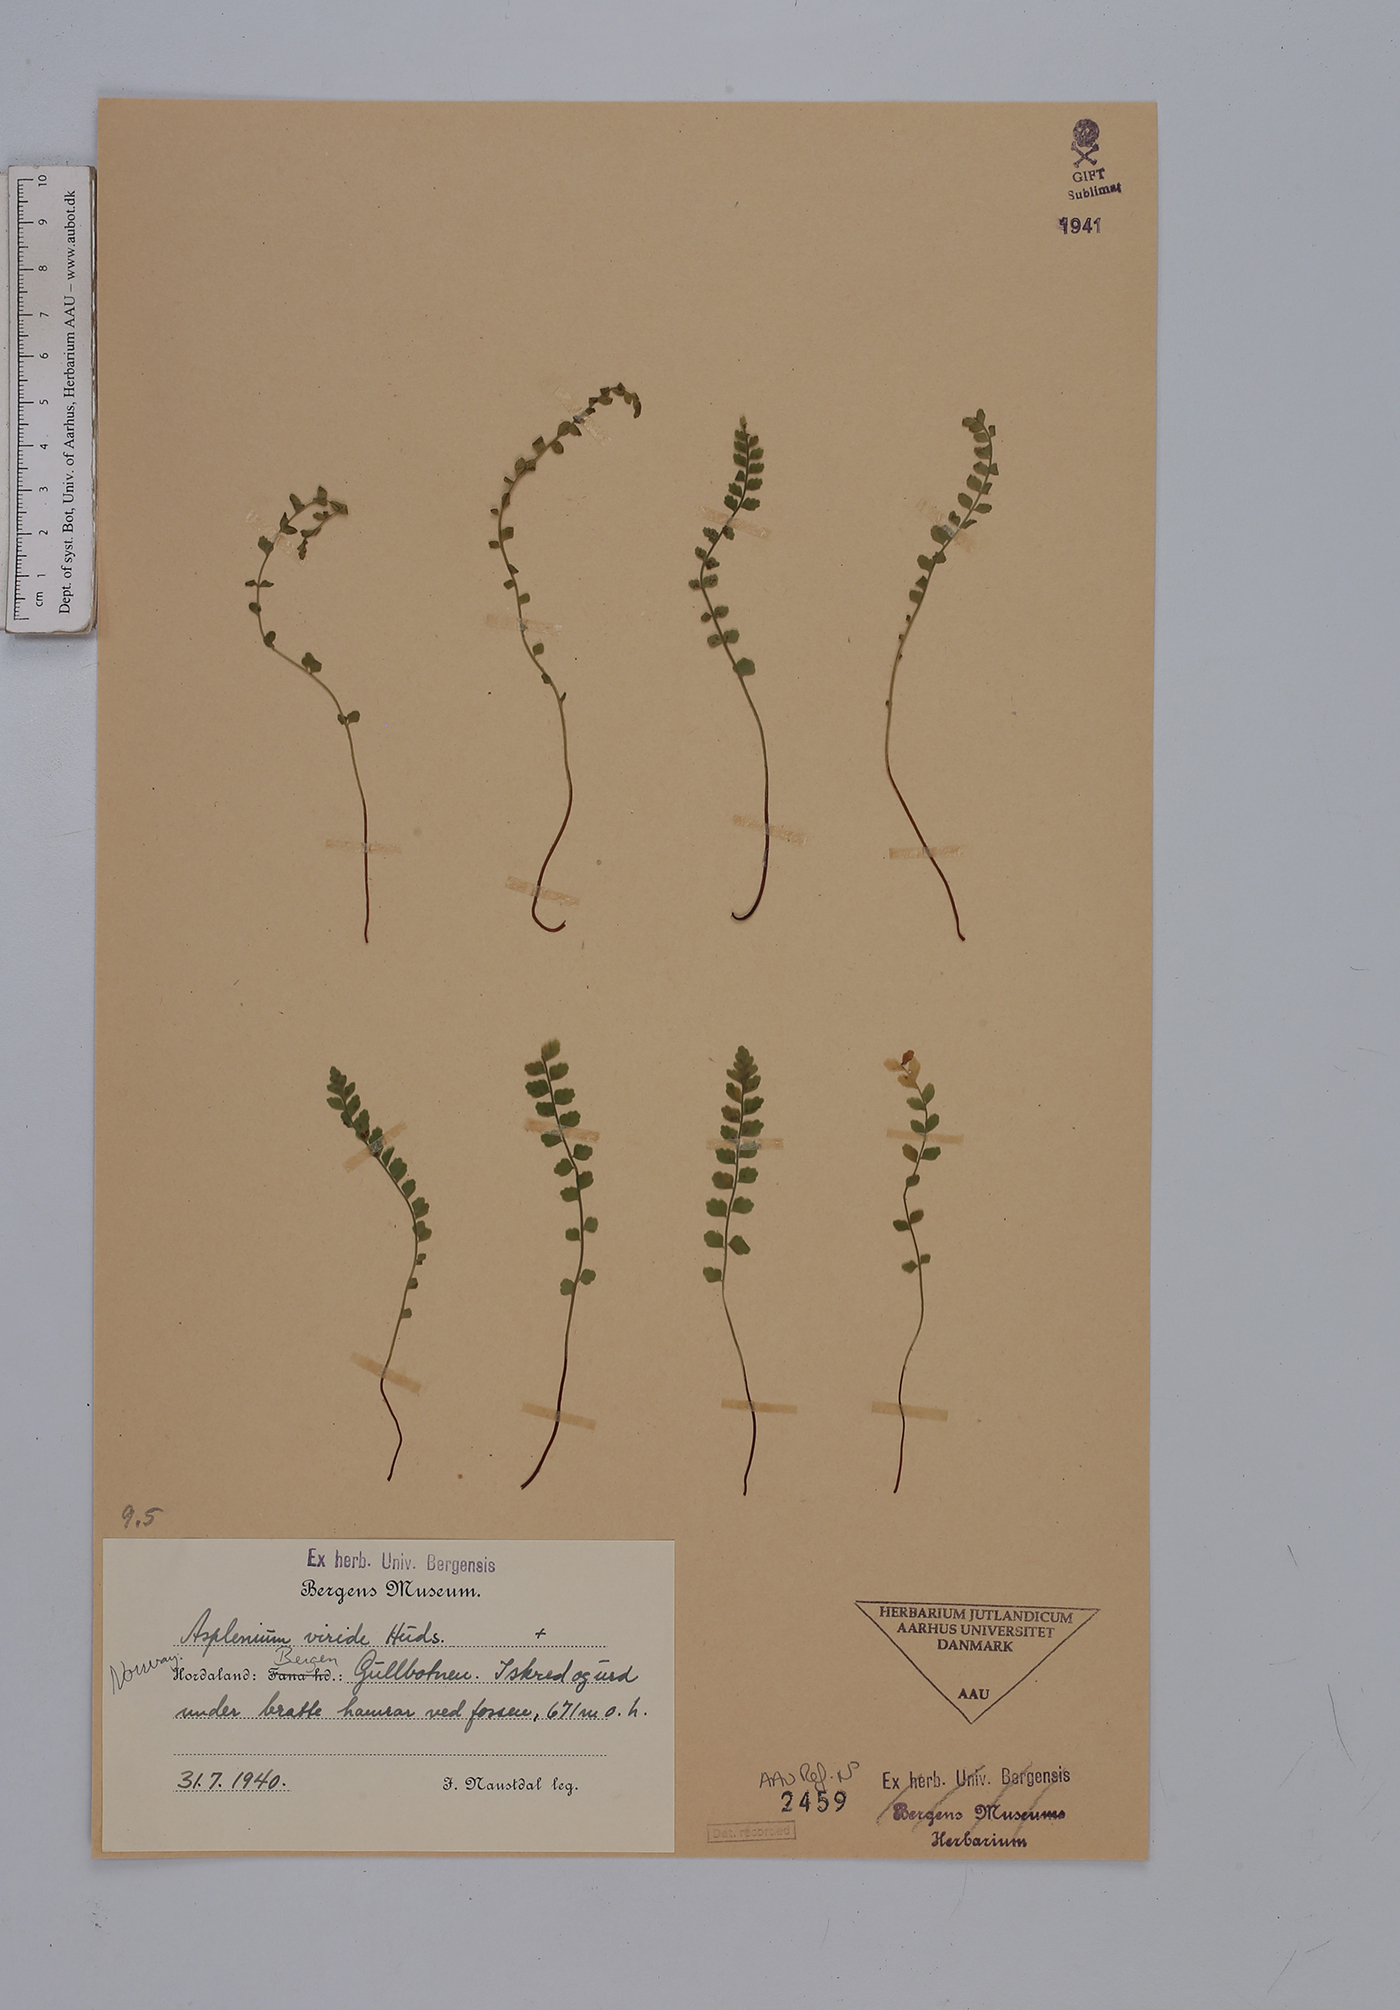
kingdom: Plantae
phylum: Tracheophyta
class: Polypodiopsida
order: Polypodiales
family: Aspleniaceae
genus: Asplenium
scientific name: Asplenium viride
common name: Green spleenwort
